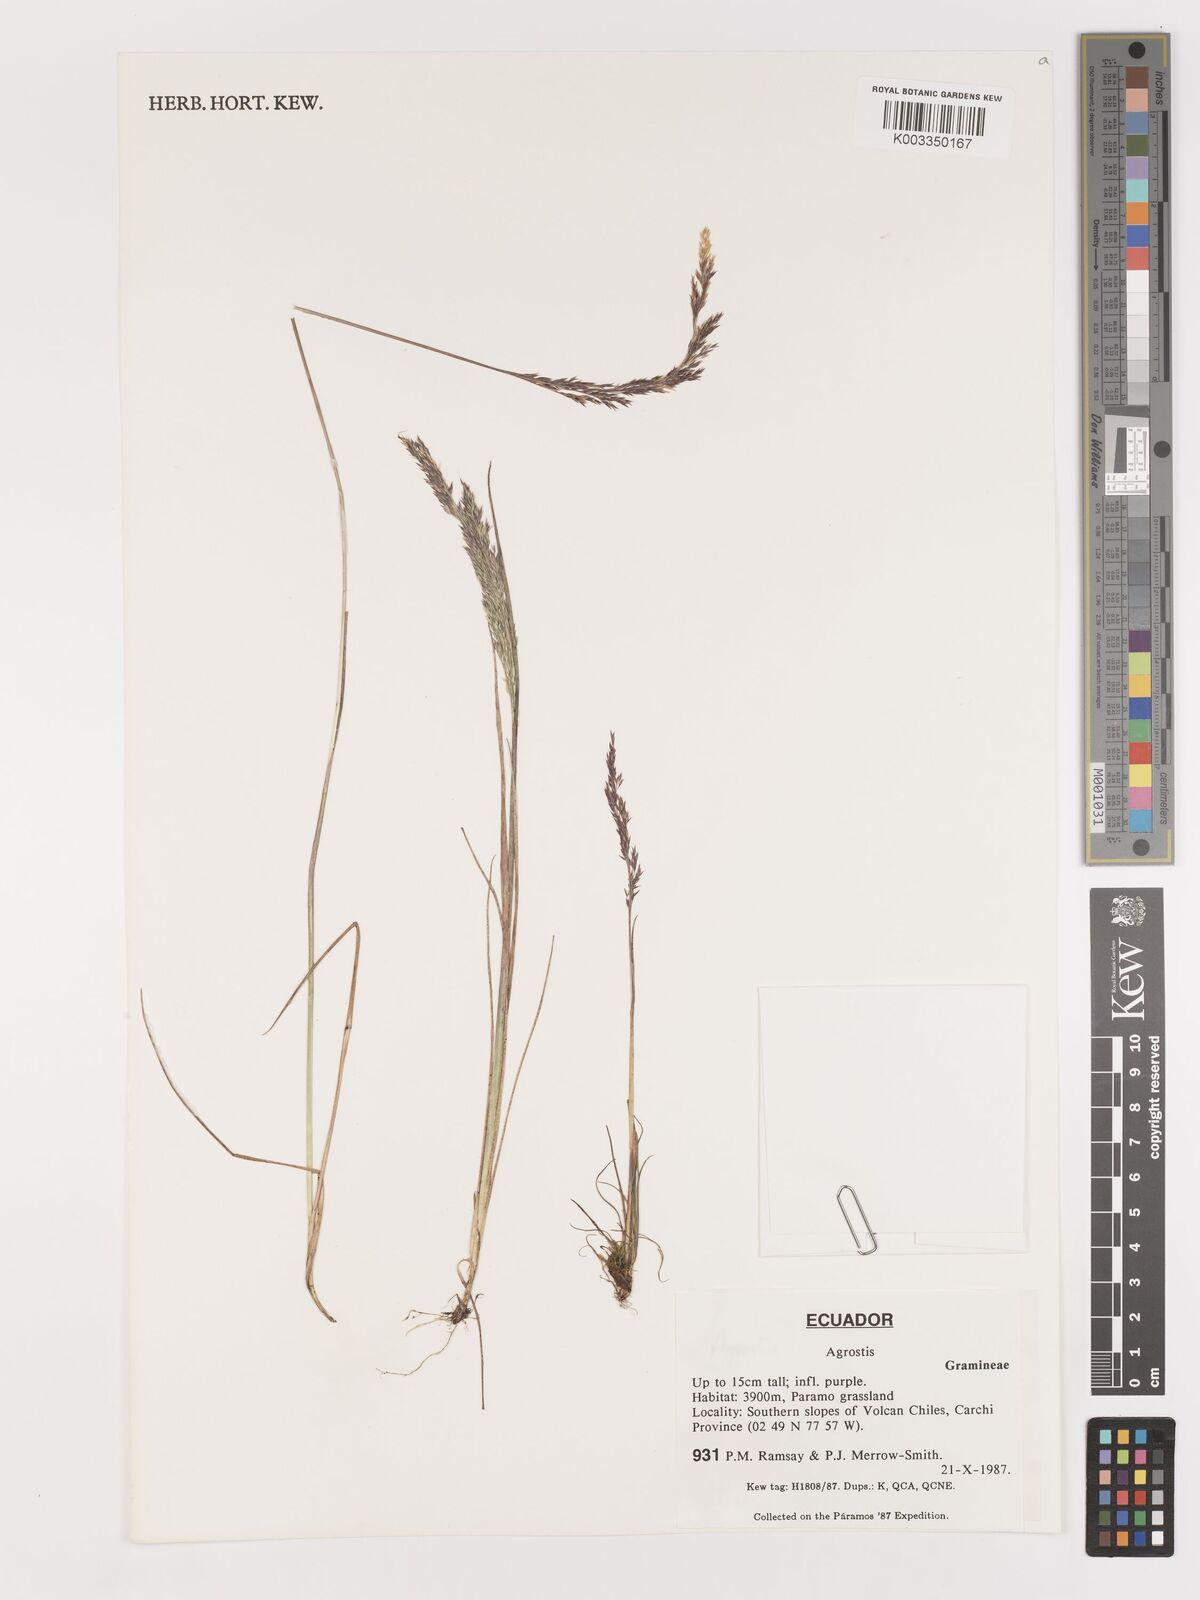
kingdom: Plantae
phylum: Tracheophyta
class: Liliopsida
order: Poales
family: Poaceae
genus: Agrostis
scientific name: Agrostis
